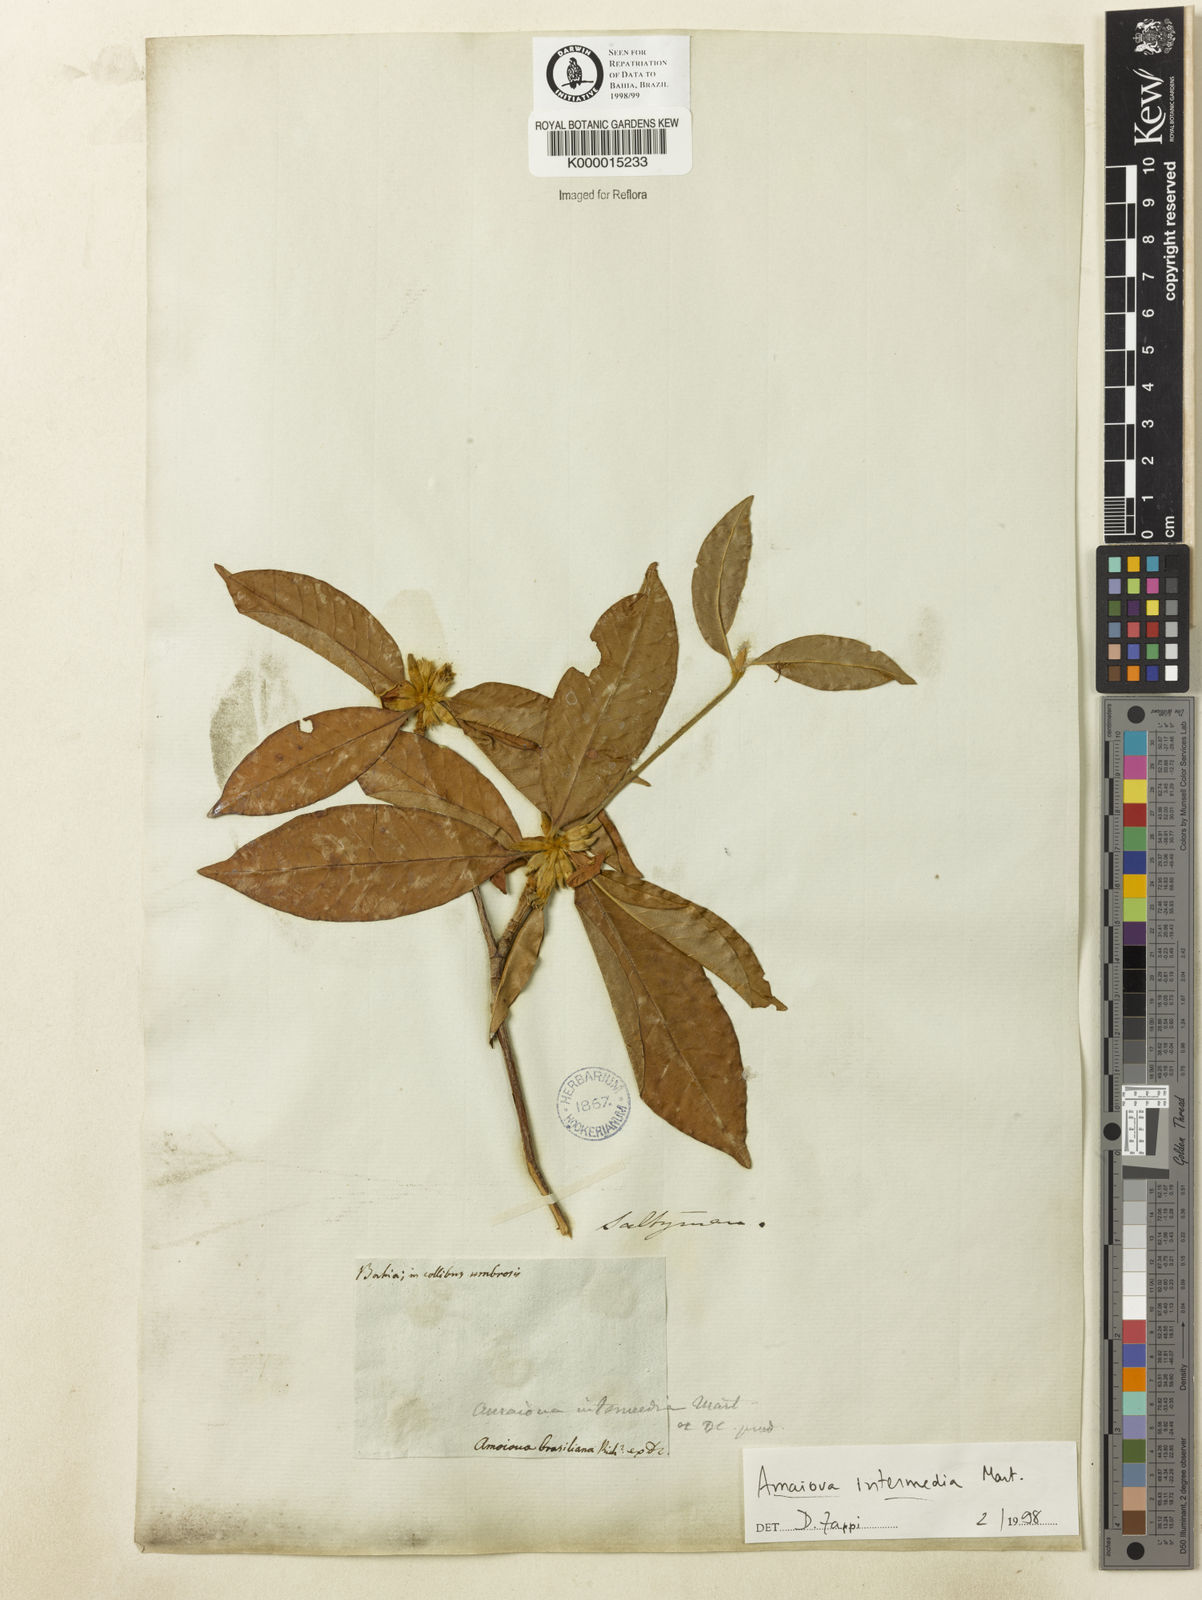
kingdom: Plantae
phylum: Tracheophyta
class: Magnoliopsida
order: Gentianales
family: Rubiaceae
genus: Amaioua
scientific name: Amaioua
